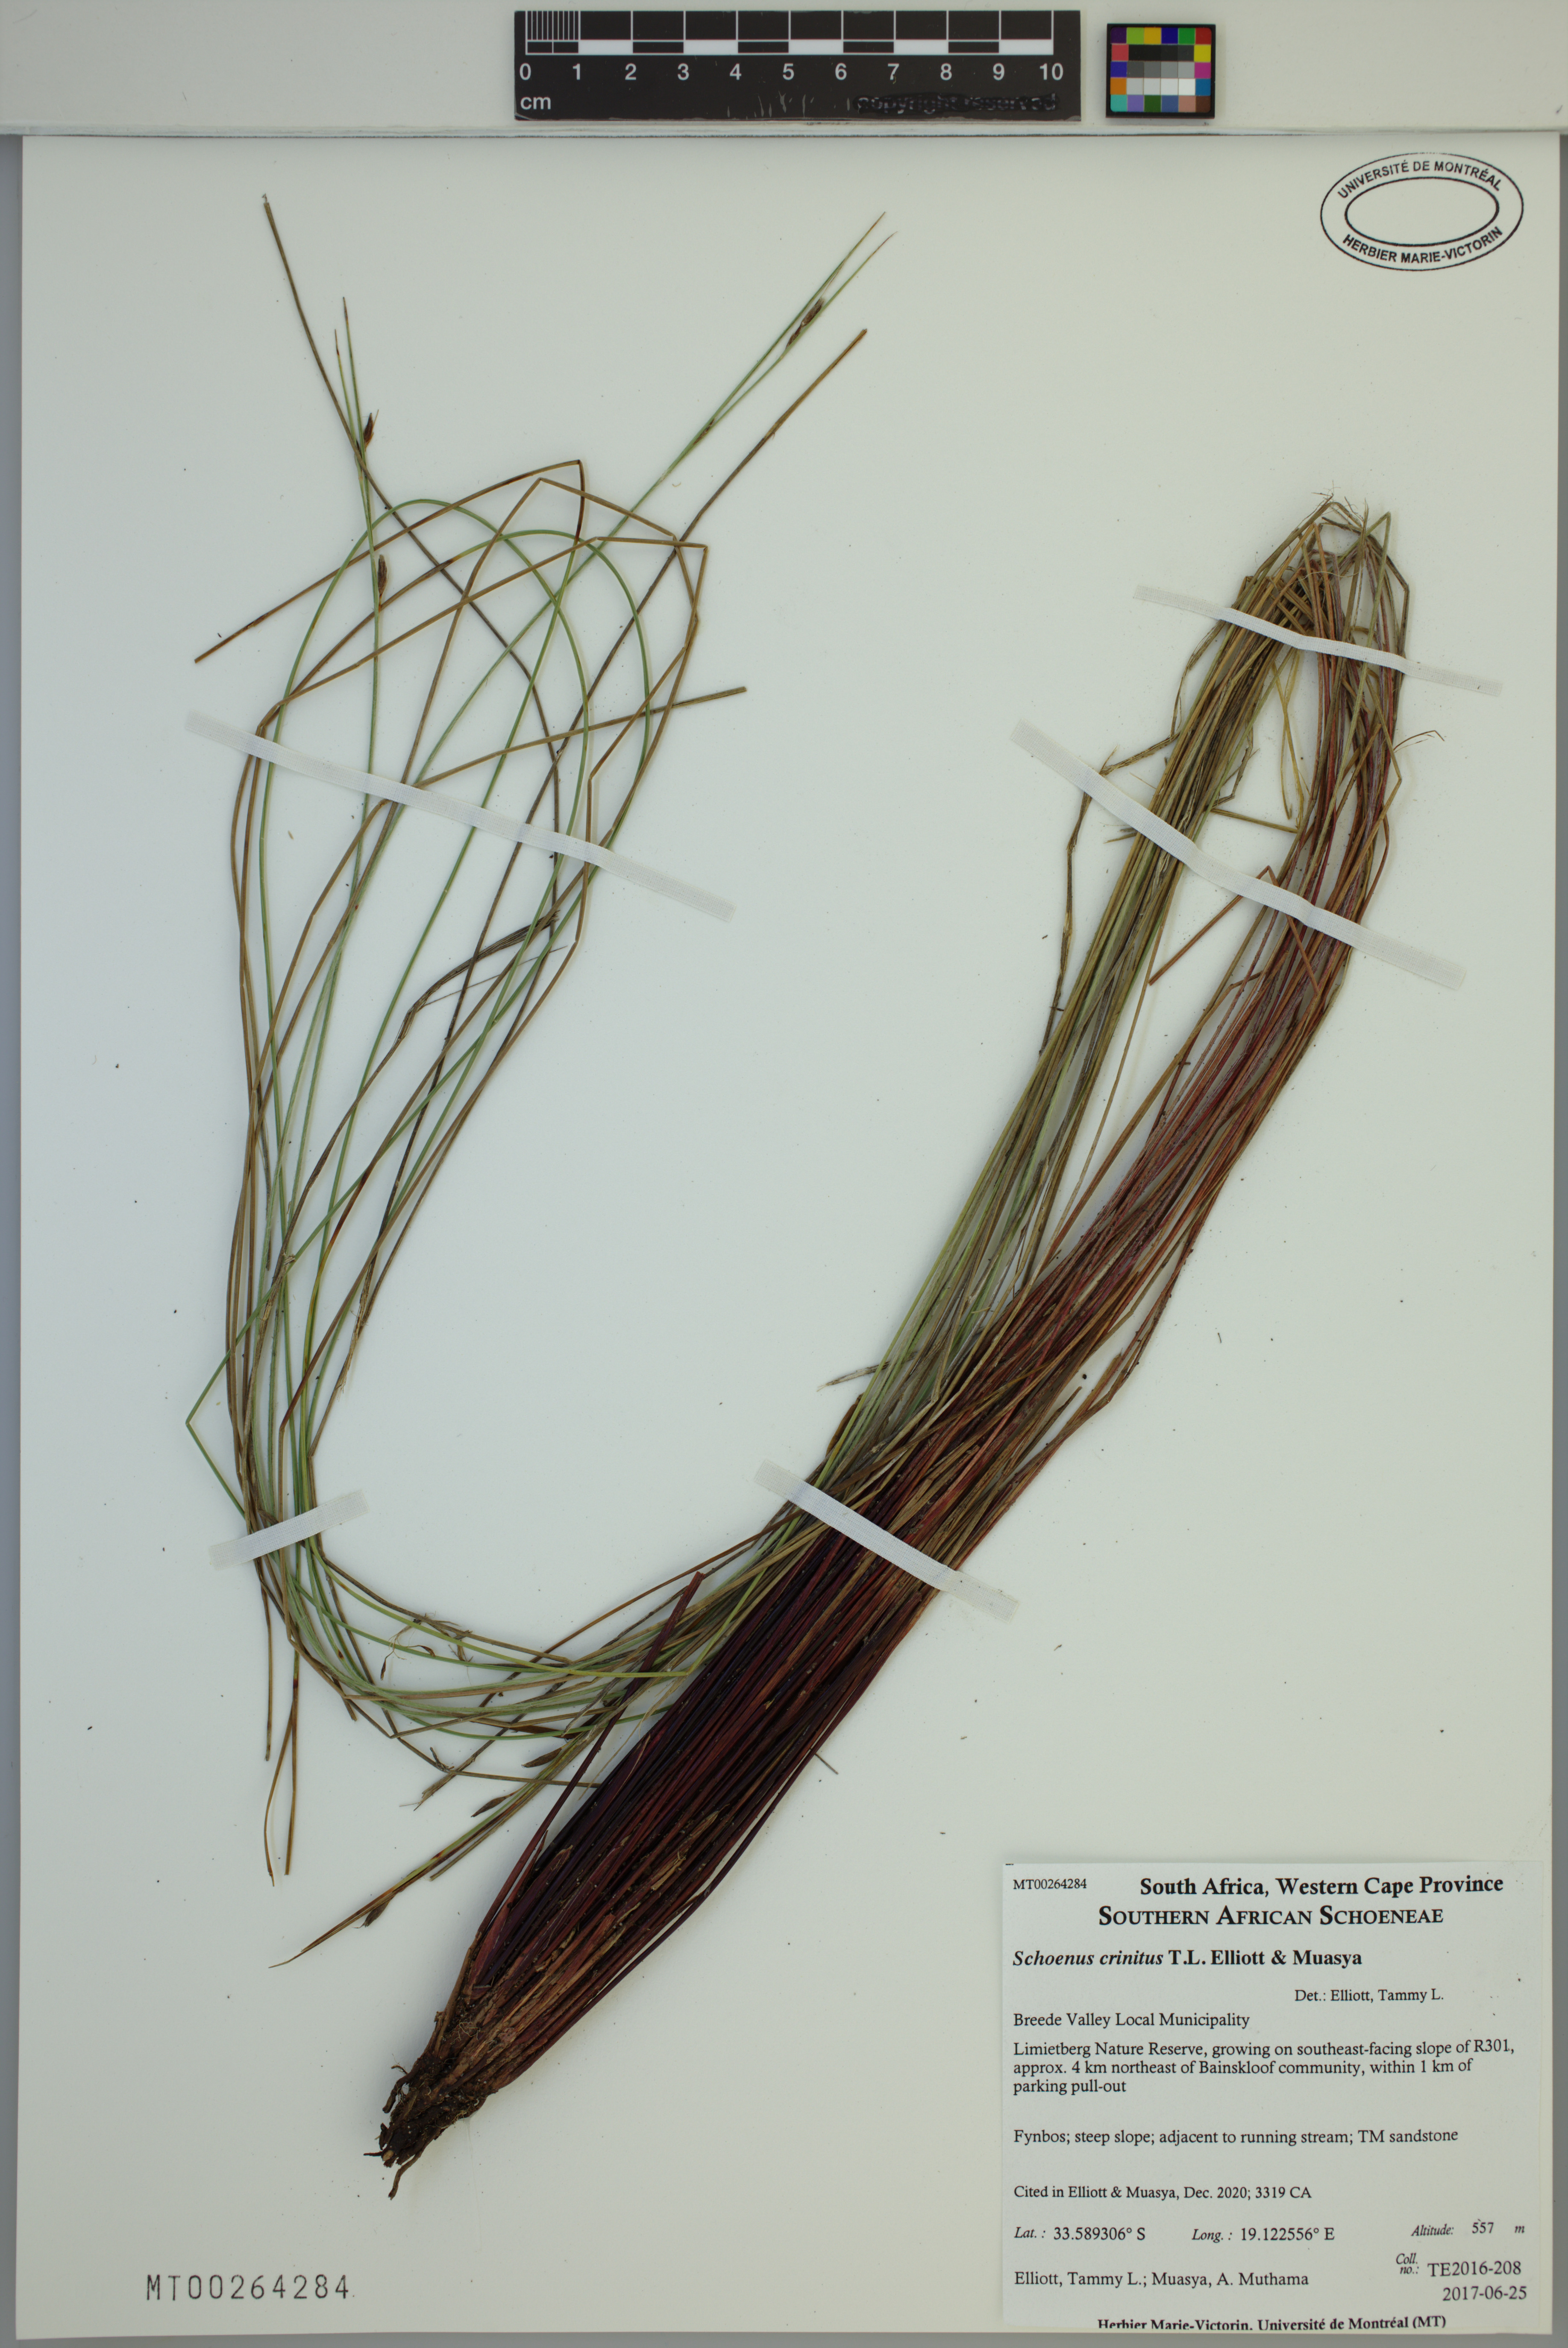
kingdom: Plantae
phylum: Tracheophyta
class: Liliopsida
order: Poales
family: Cyperaceae
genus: Schoenus
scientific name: Schoenus crinitus
